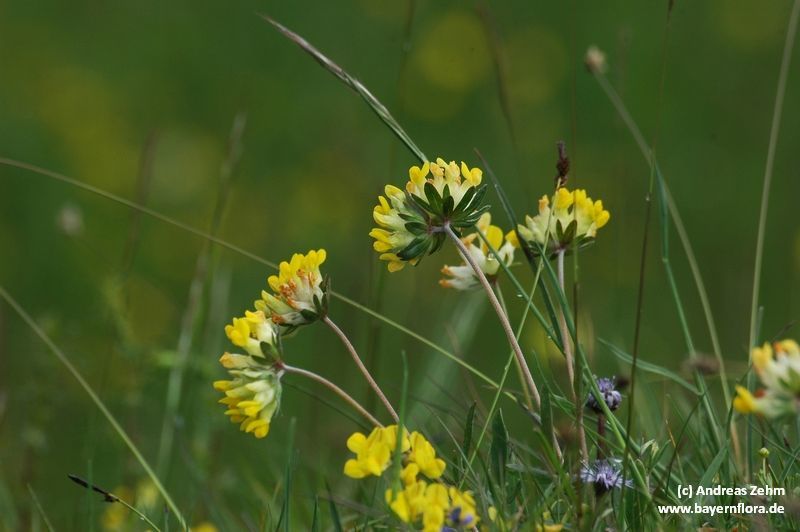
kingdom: Plantae
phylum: Tracheophyta
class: Magnoliopsida
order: Fabales
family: Fabaceae
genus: Anthyllis
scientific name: Anthyllis vulneraria
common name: Kidney vetch
